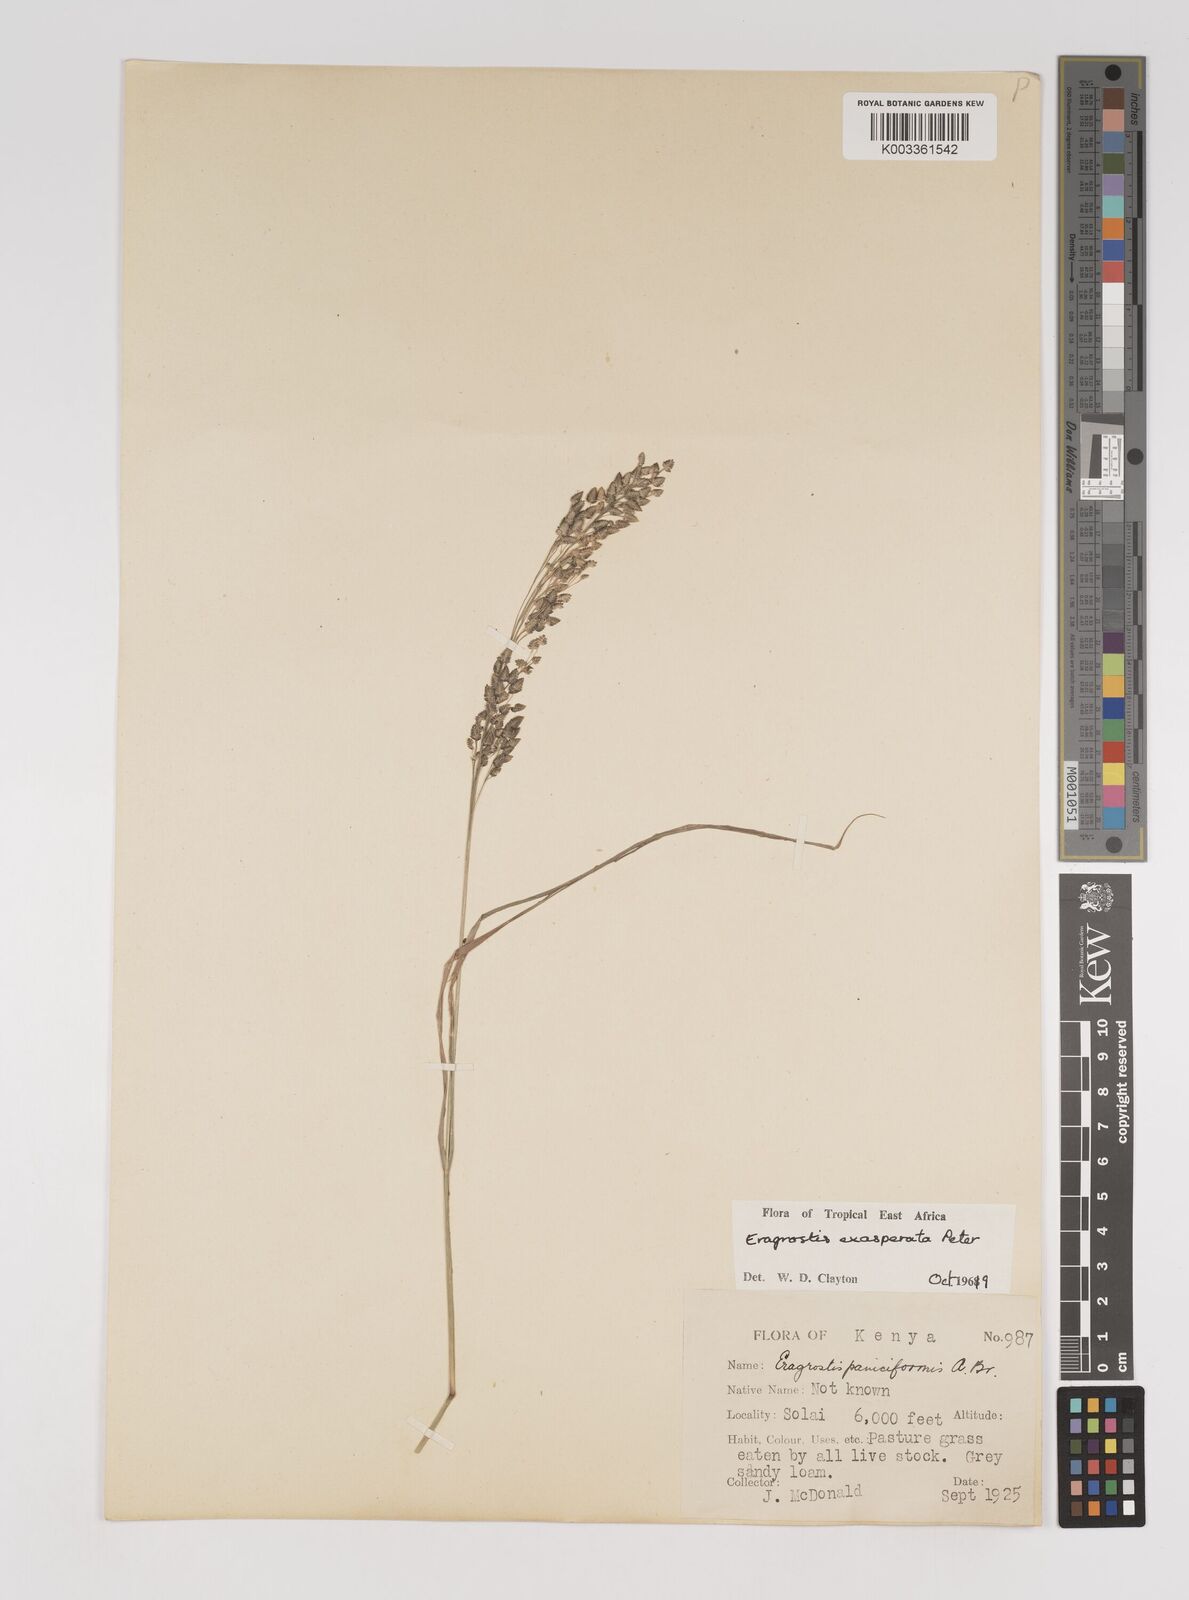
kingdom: Plantae
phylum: Tracheophyta
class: Liliopsida
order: Poales
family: Poaceae
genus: Eragrostis
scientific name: Eragrostis exasperata
